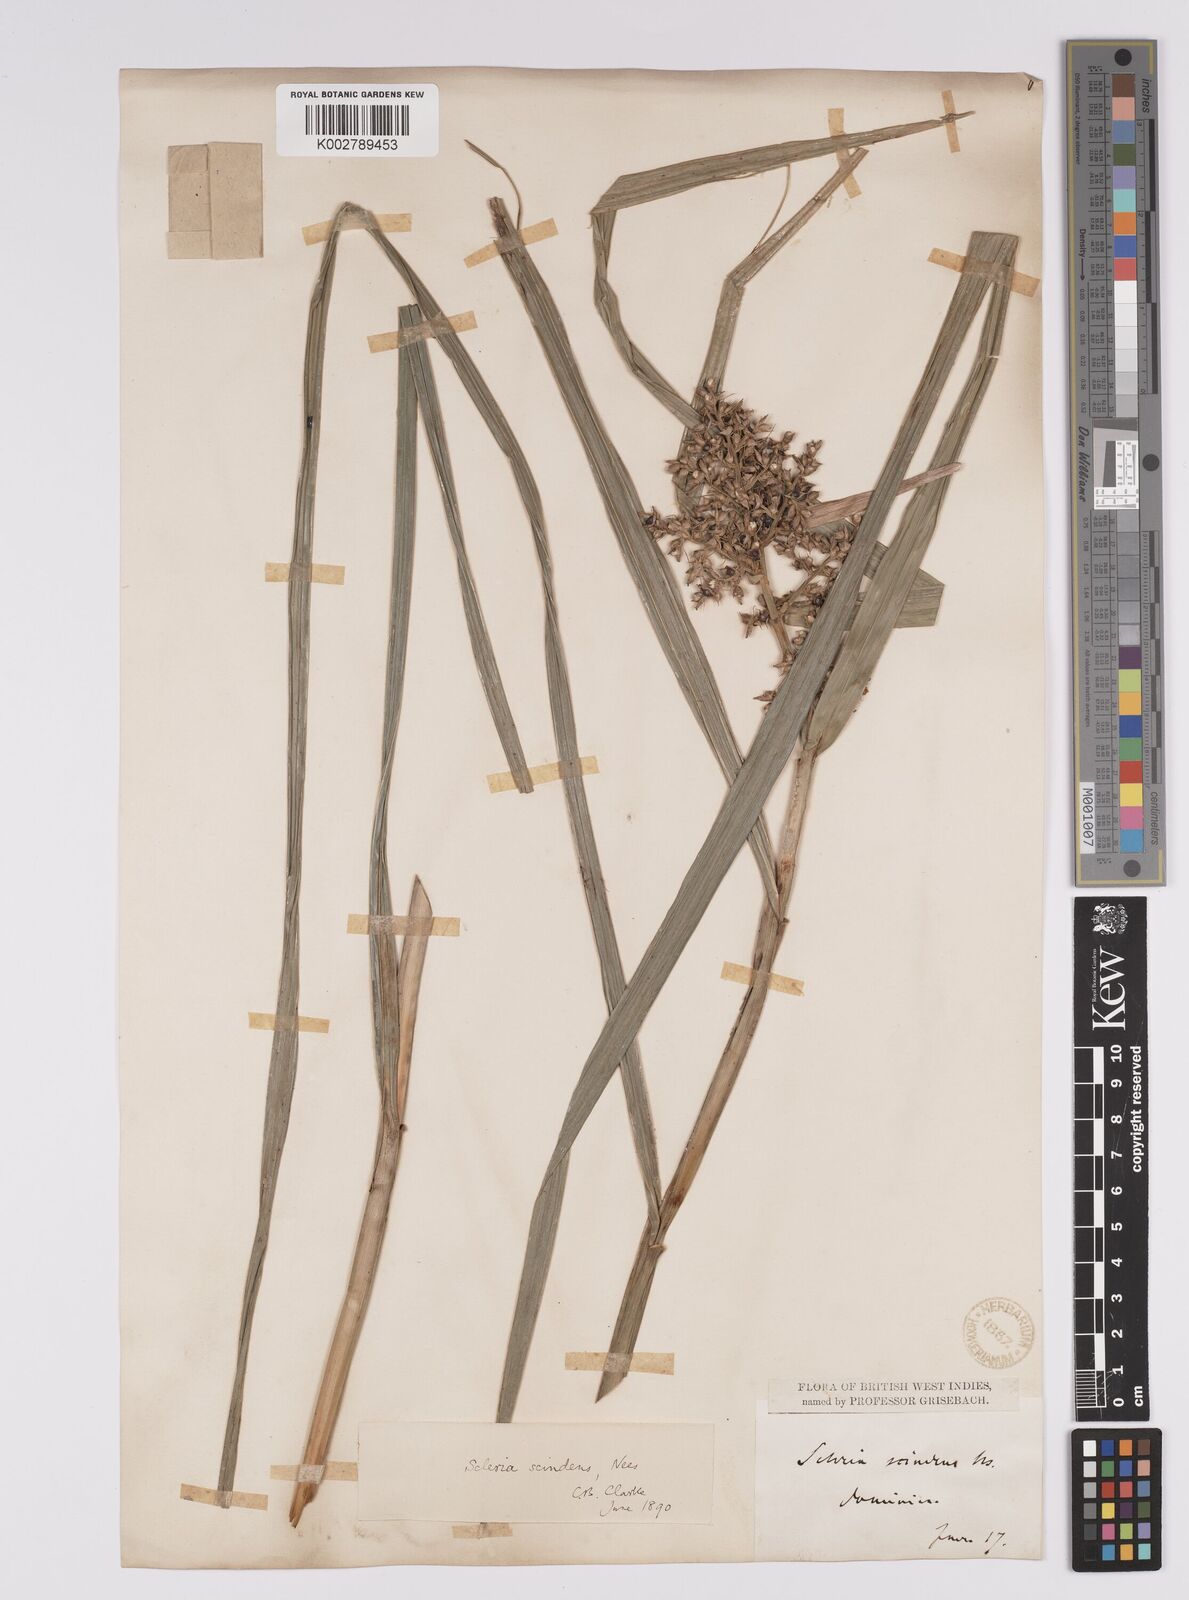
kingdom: Plantae
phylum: Tracheophyta
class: Liliopsida
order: Poales
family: Cyperaceae
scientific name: Cyperaceae
